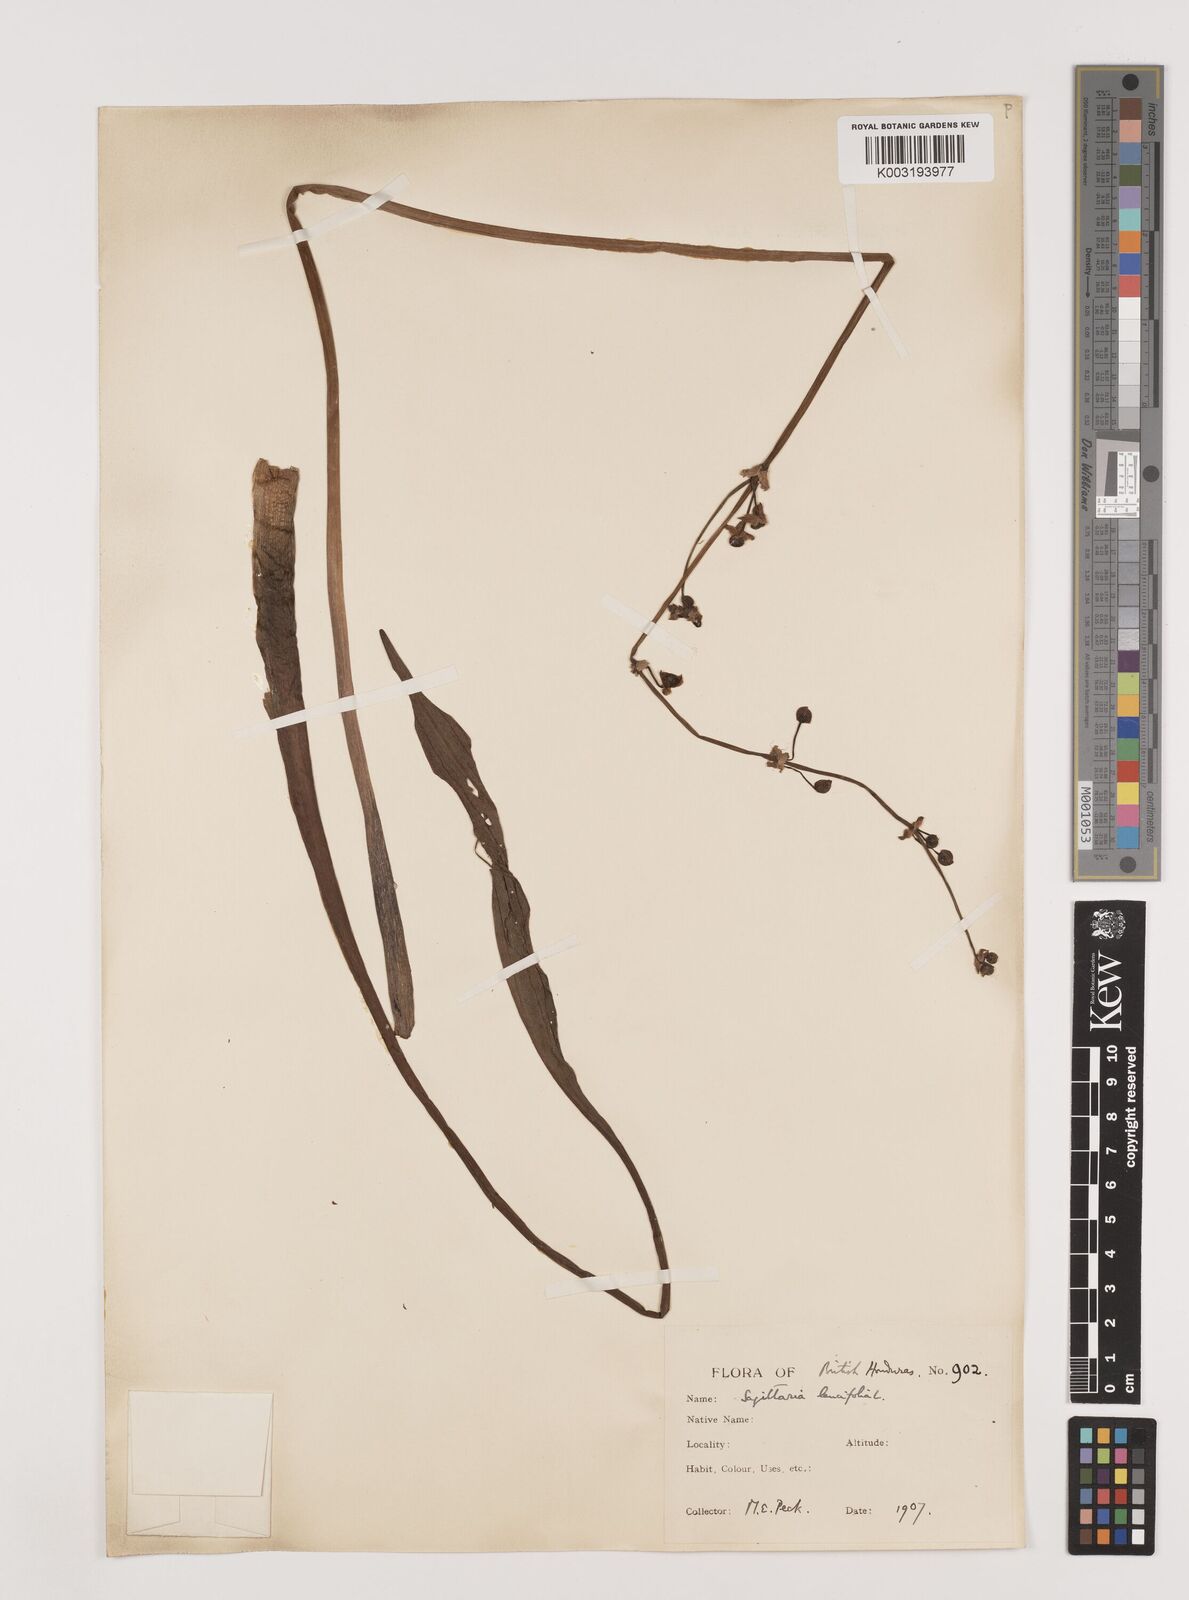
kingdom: Plantae
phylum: Tracheophyta
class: Liliopsida
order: Alismatales
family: Alismataceae
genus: Sagittaria
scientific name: Sagittaria lancifolia
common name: Lance-leaf arrowhead
